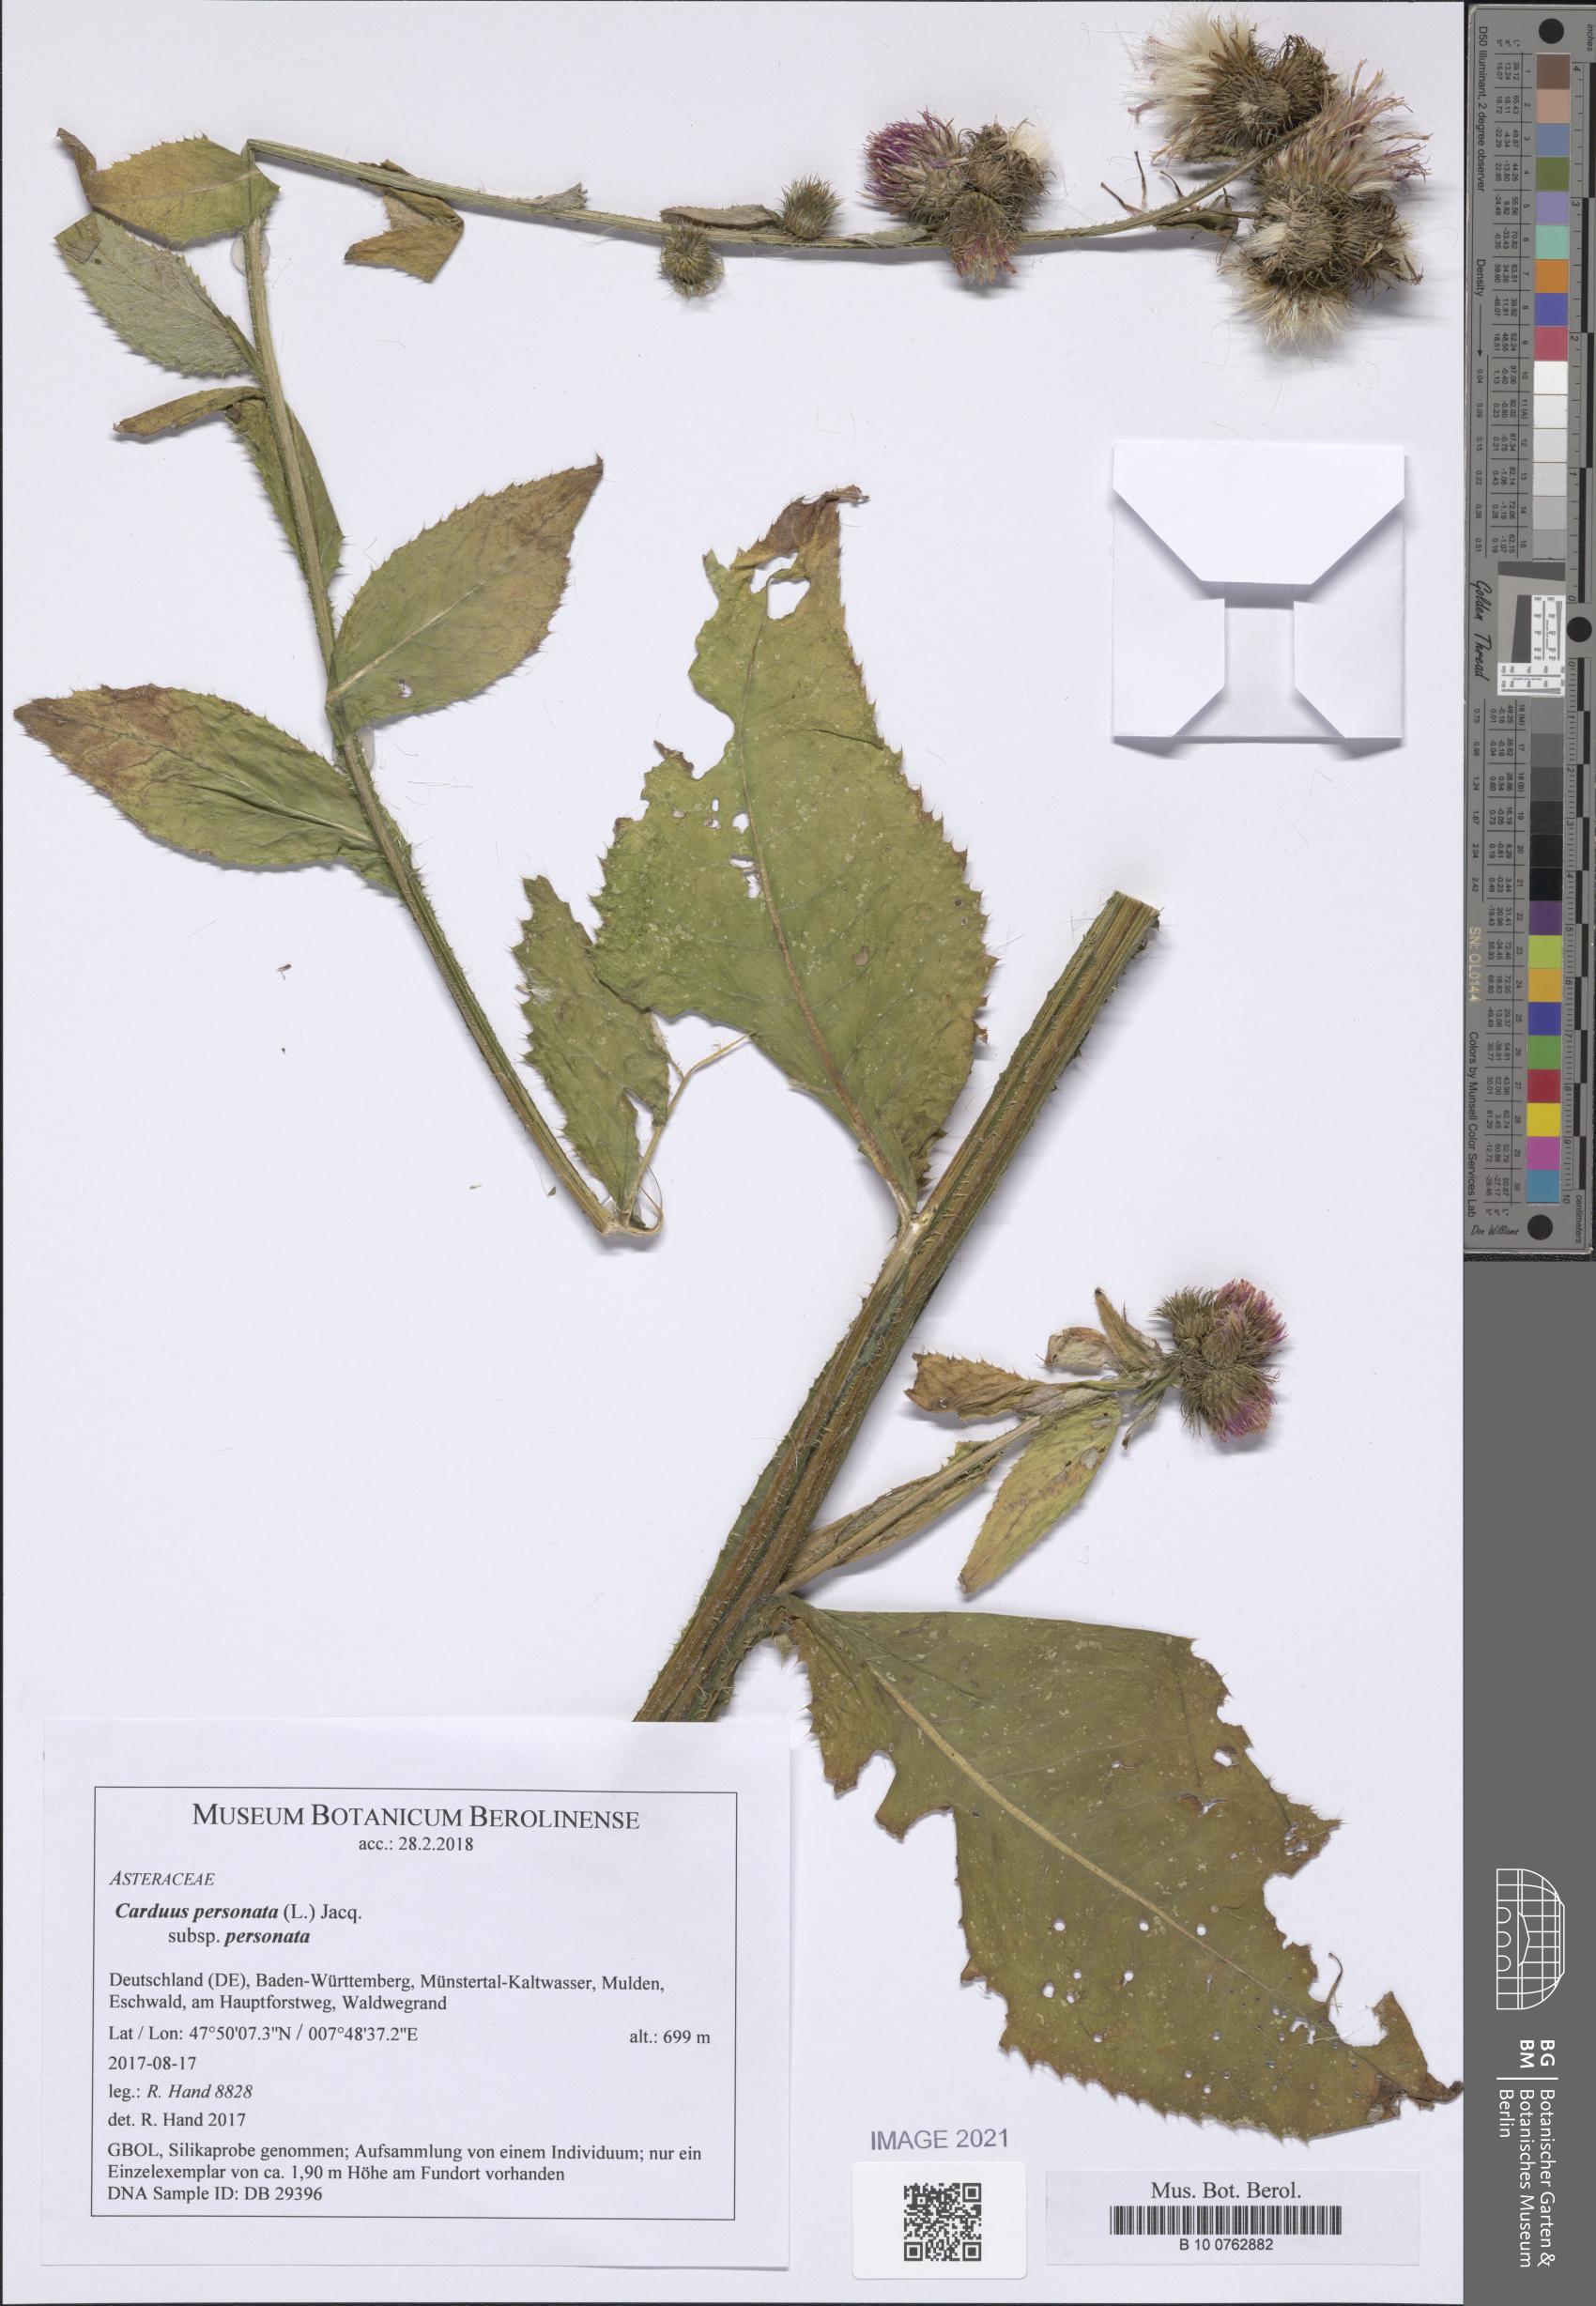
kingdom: Plantae
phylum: Tracheophyta
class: Magnoliopsida
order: Asterales
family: Asteraceae
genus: Carduus
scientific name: Carduus personata
